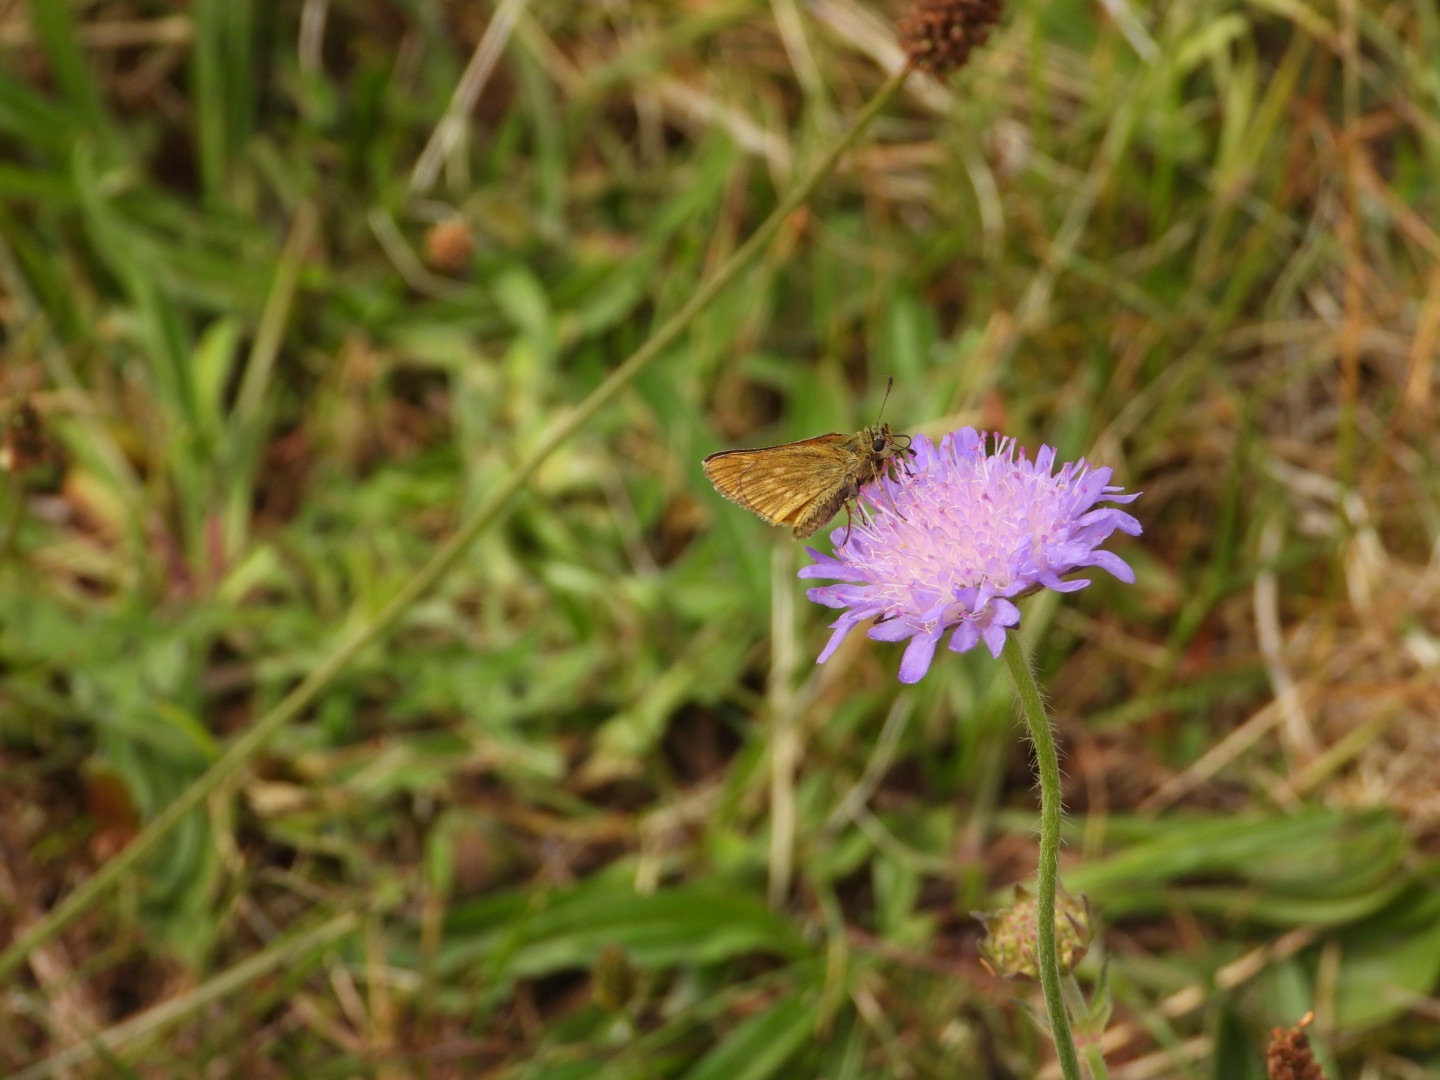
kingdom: Animalia
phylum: Arthropoda
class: Insecta
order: Lepidoptera
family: Hesperiidae
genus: Ochlodes
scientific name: Ochlodes venata
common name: Stor bredpande
